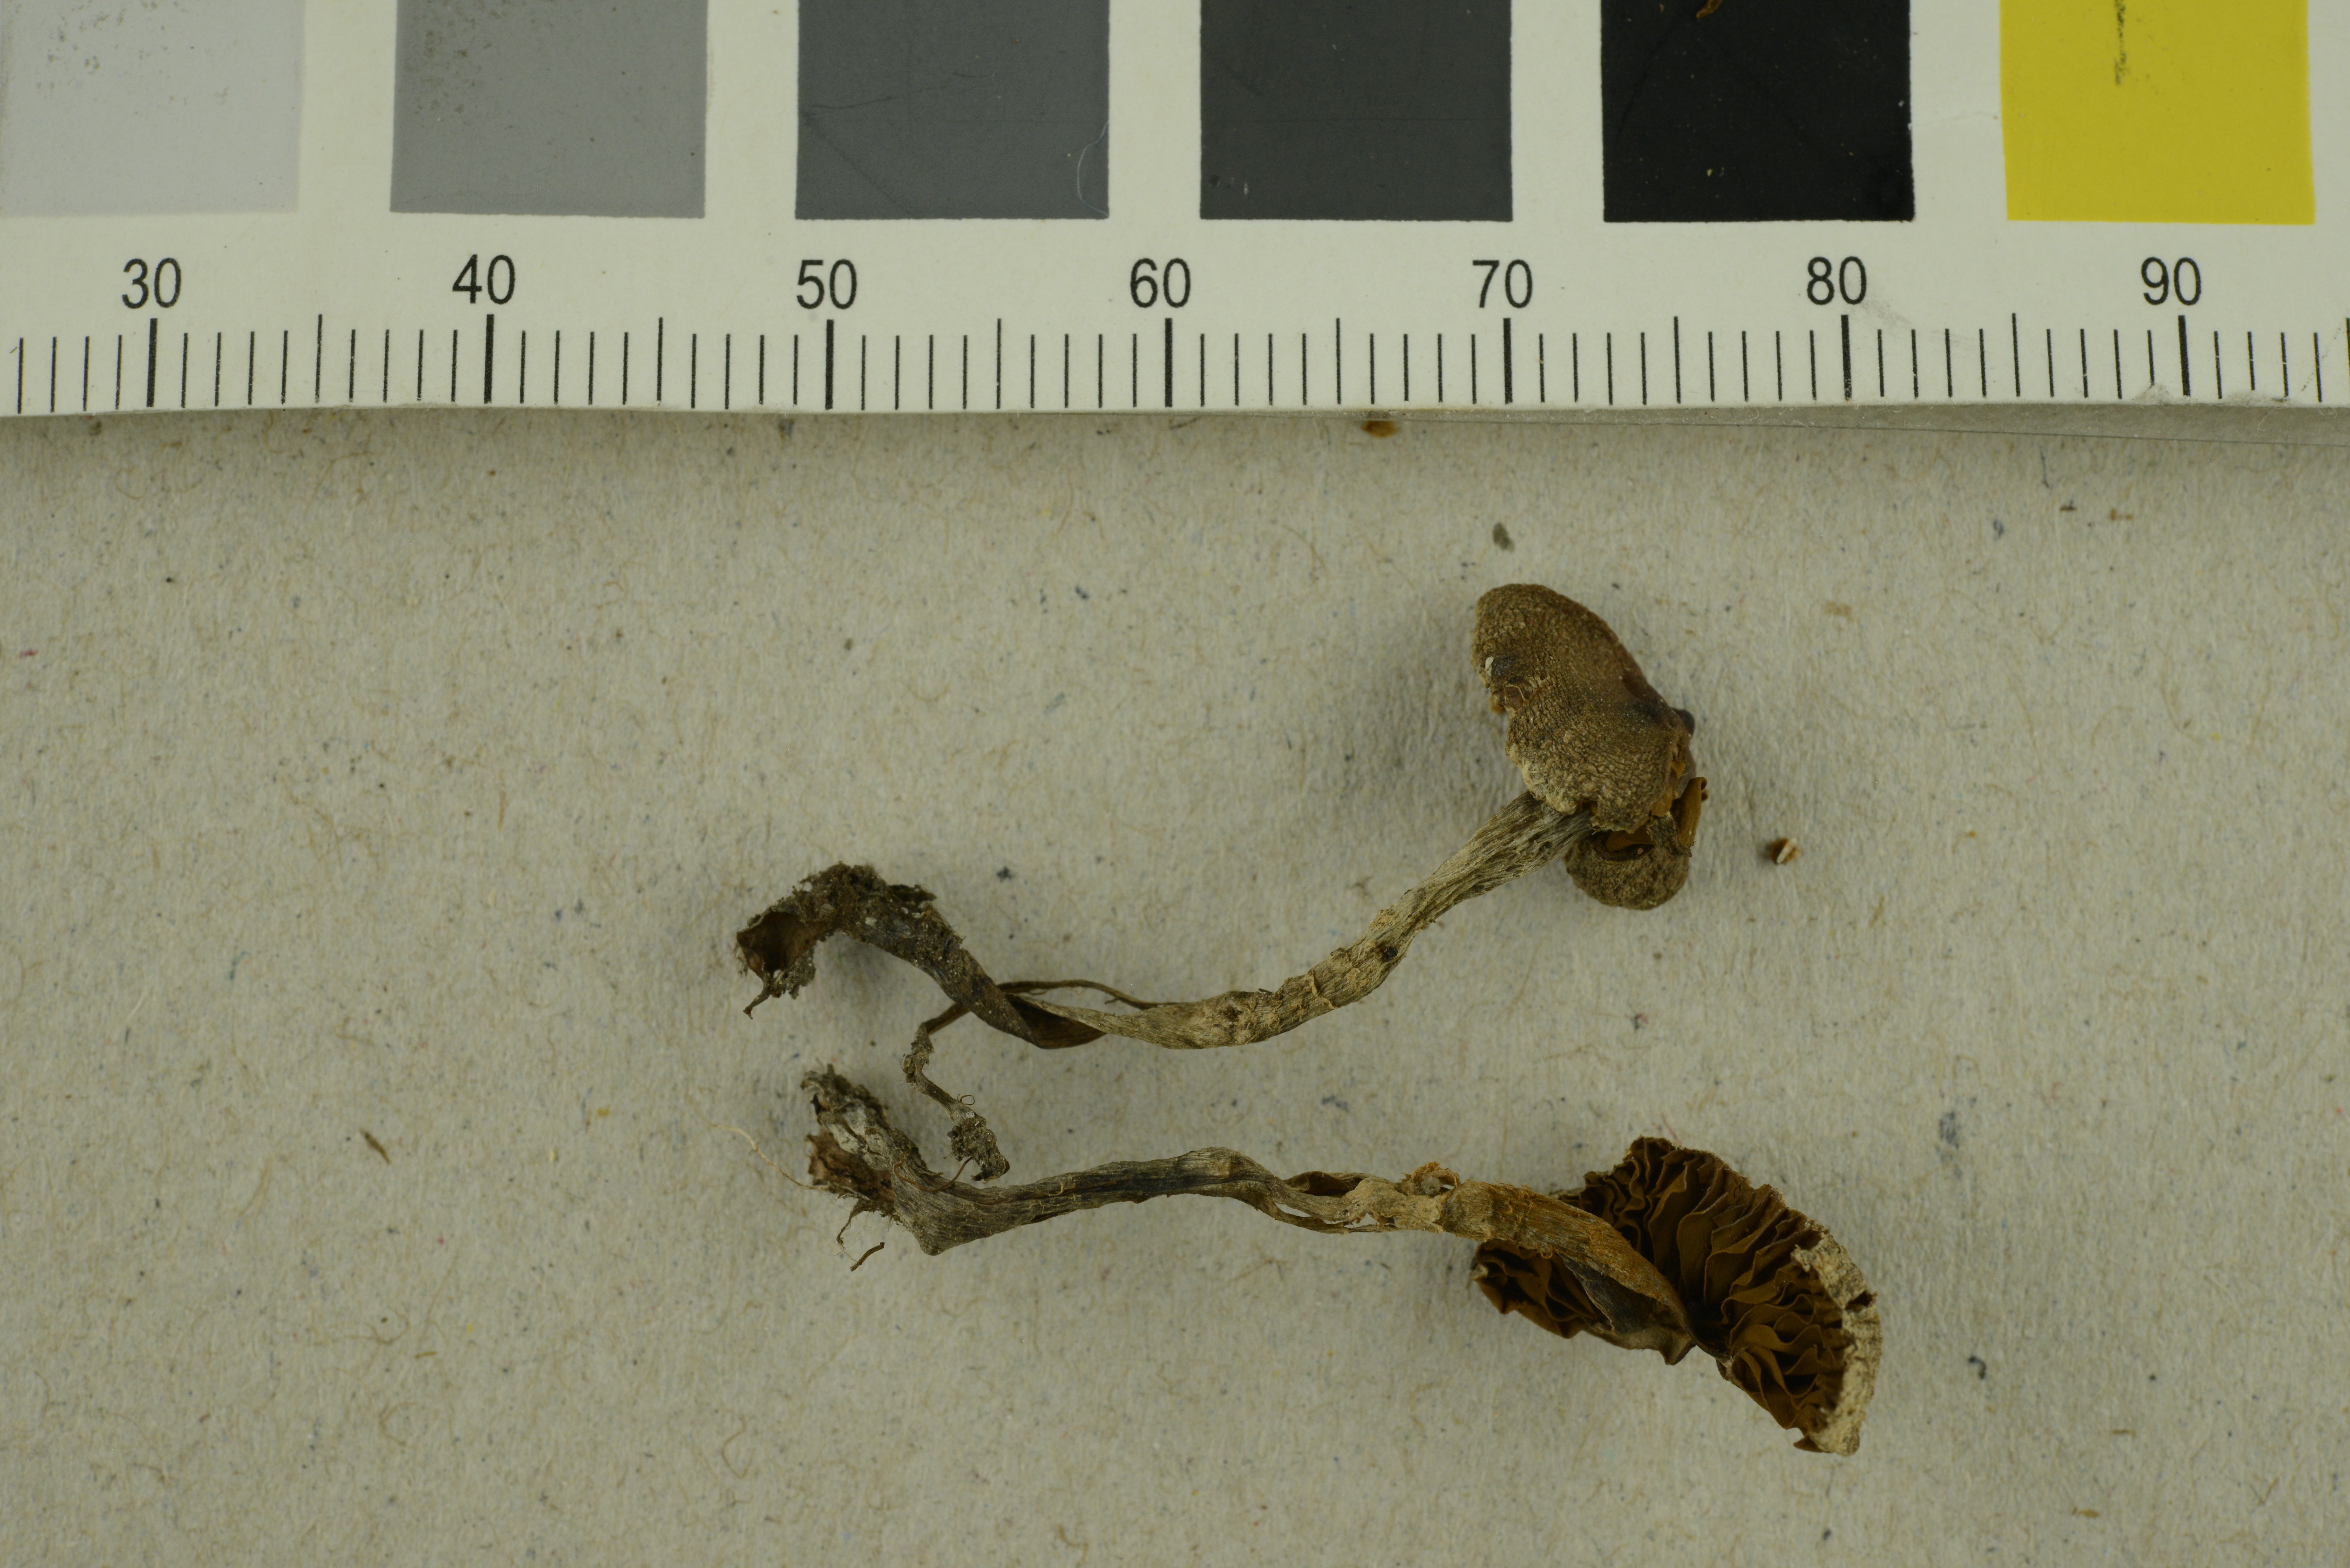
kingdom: Fungi
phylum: Basidiomycota
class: Agaricomycetes
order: Agaricales
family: Cortinariaceae
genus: Cortinarius
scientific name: Cortinarius geraniolens
